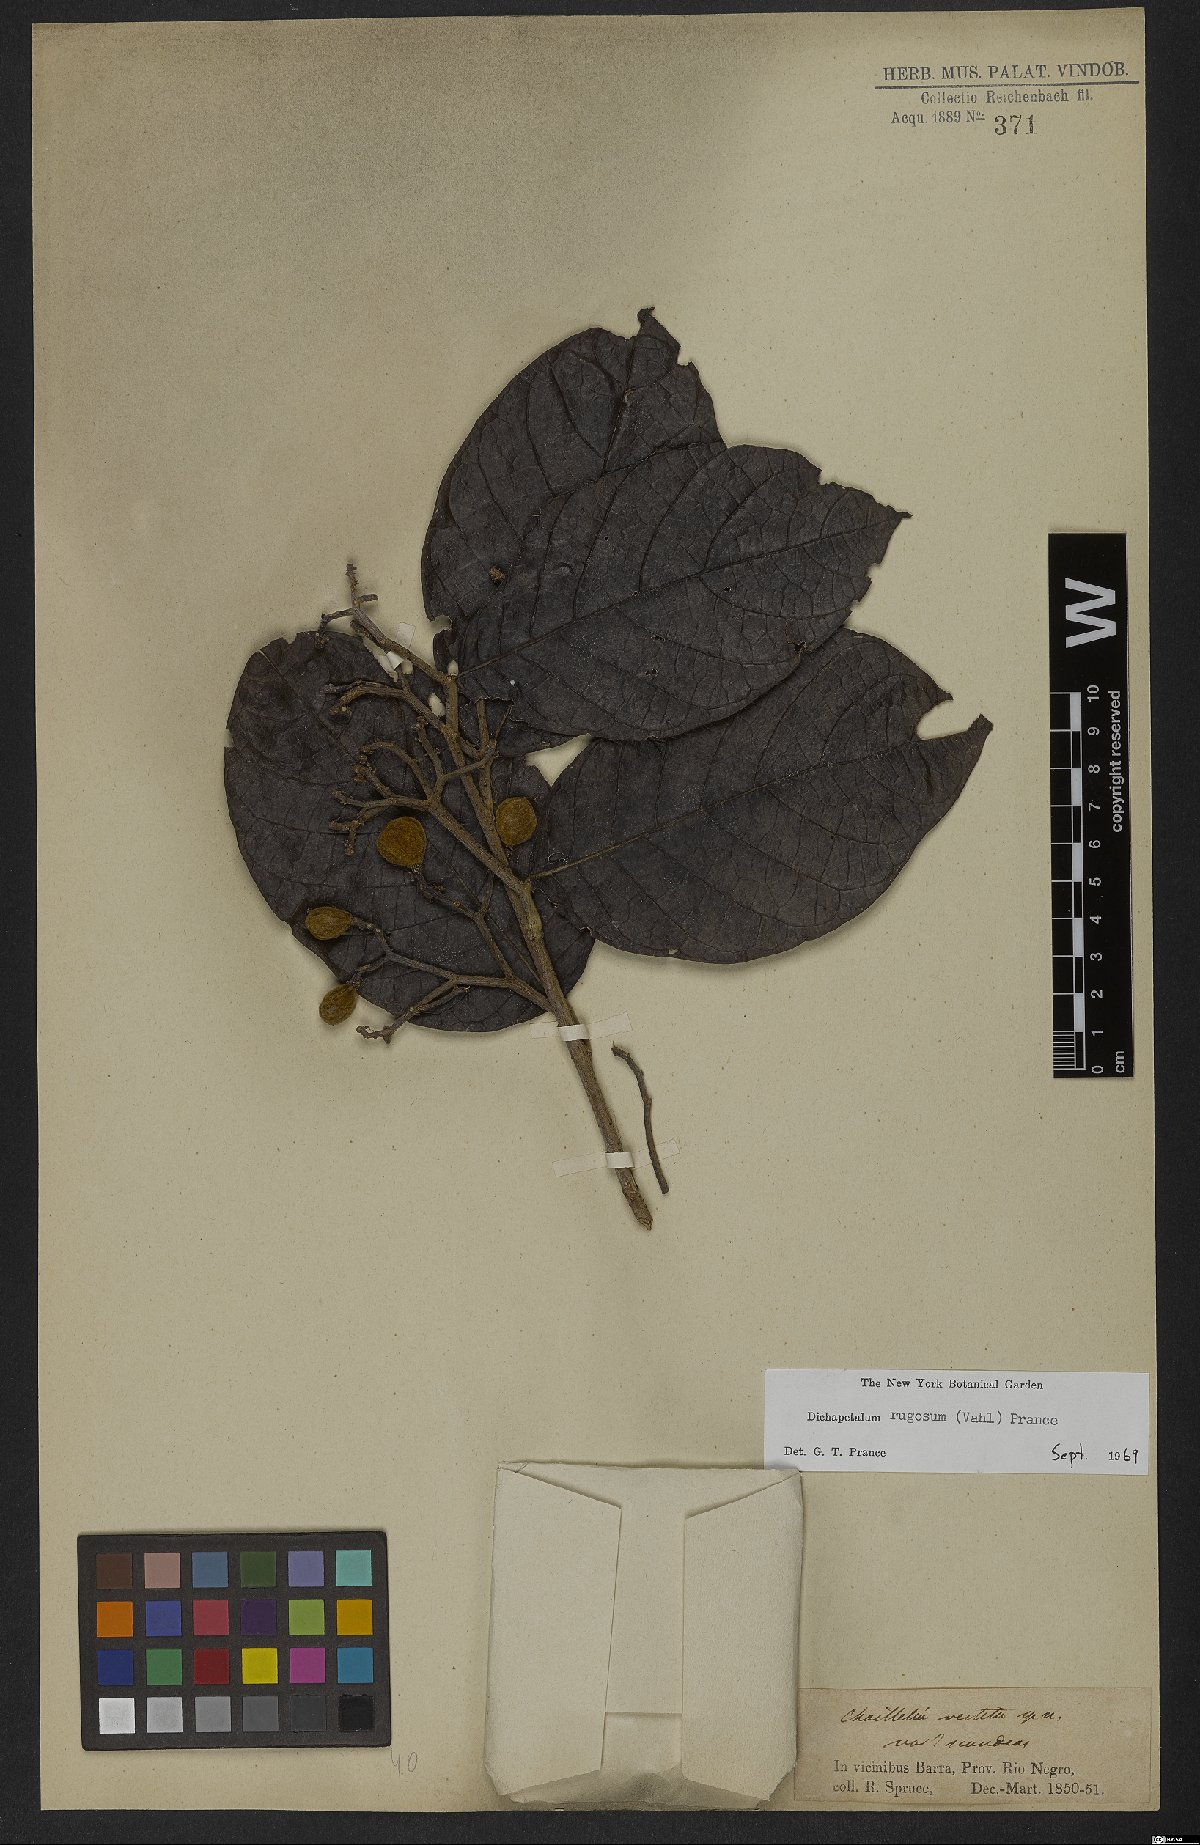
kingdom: Plantae
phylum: Tracheophyta
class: Magnoliopsida
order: Malpighiales
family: Dichapetalaceae
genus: Dichapetalum
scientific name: Dichapetalum rugosum
